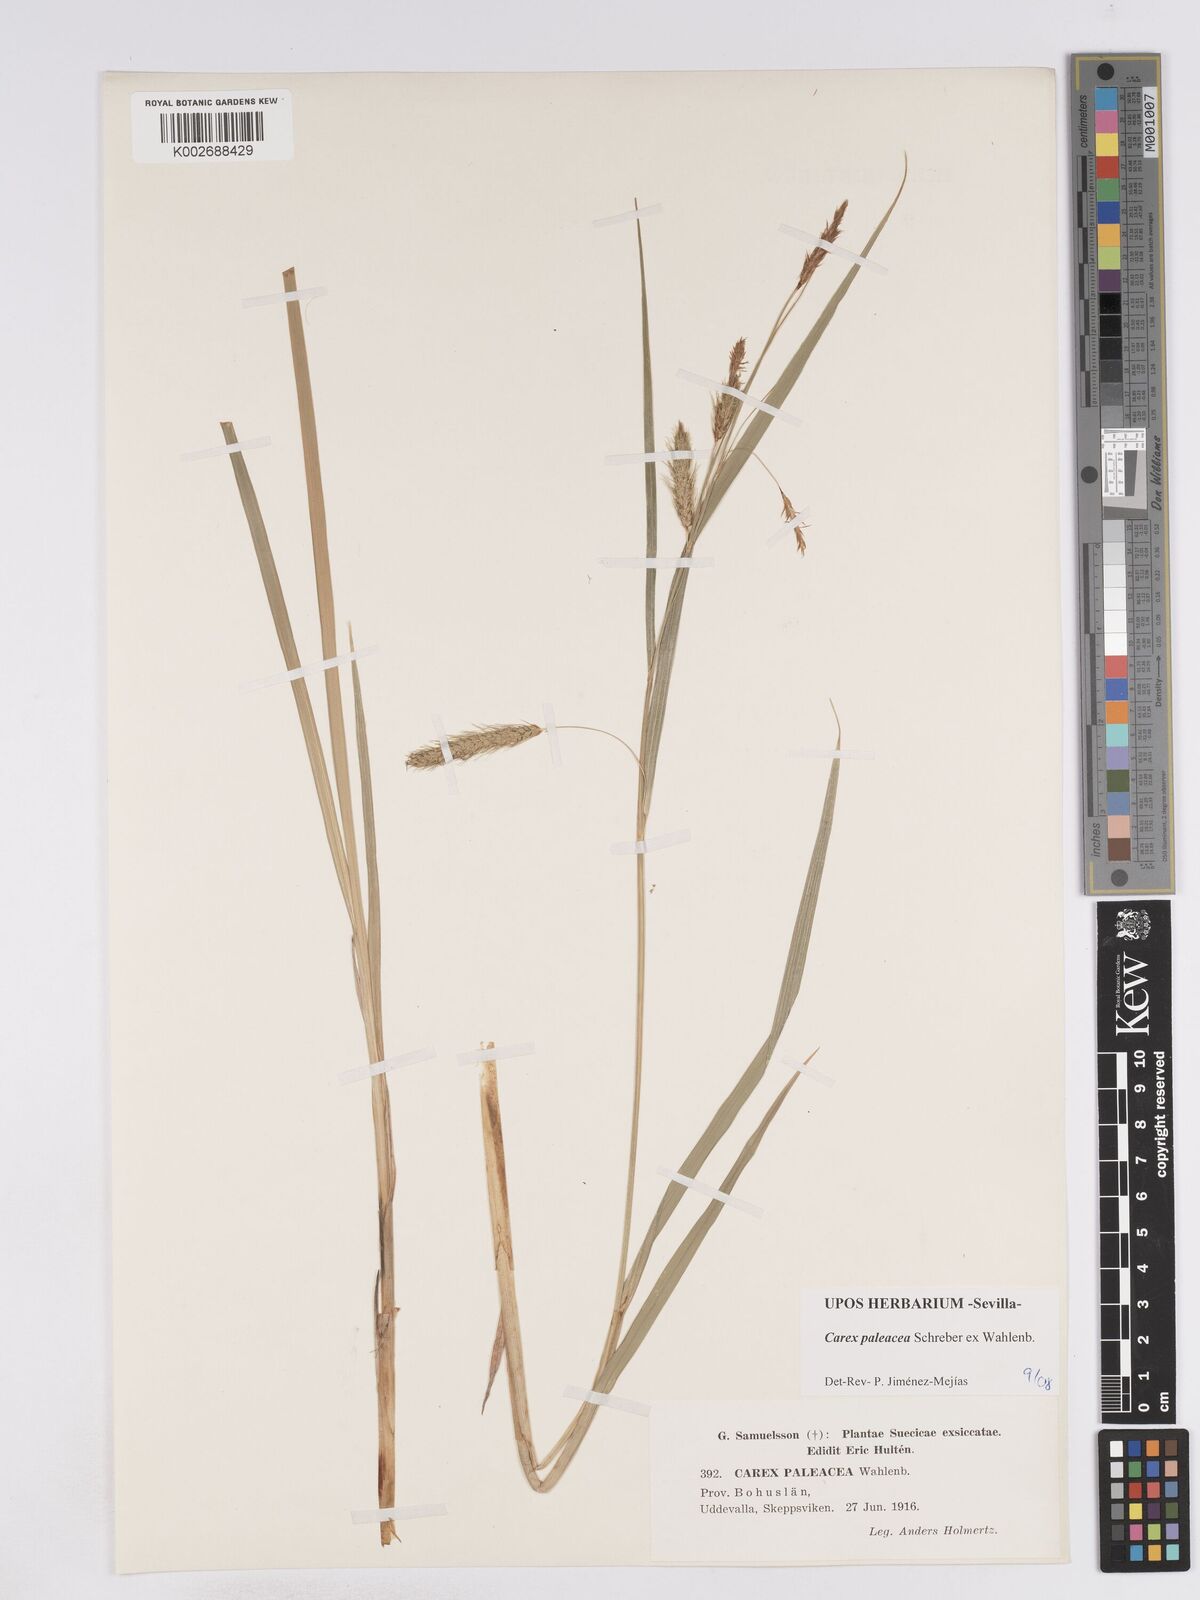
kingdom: Plantae
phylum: Tracheophyta
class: Liliopsida
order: Poales
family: Cyperaceae
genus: Carex
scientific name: Carex paleacea
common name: Chaffy sedge
